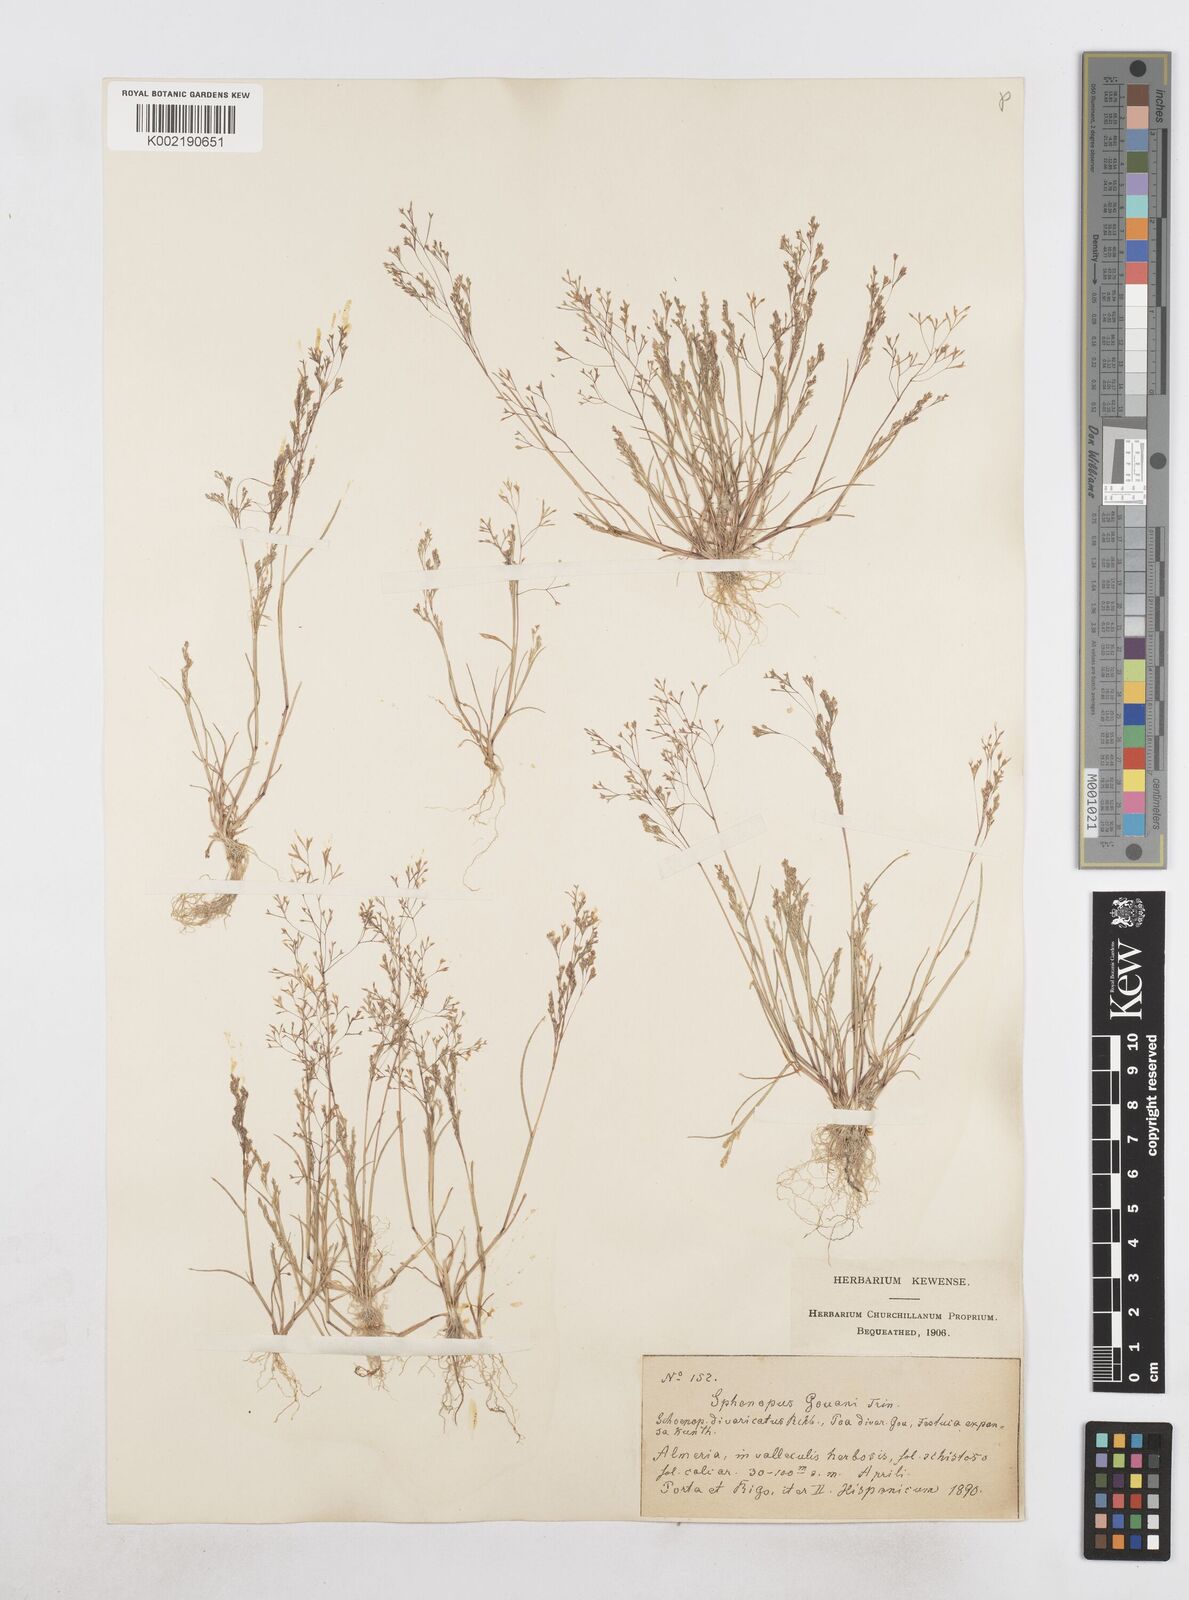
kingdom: Plantae
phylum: Tracheophyta
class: Liliopsida
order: Poales
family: Poaceae
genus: Sphenopus
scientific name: Sphenopus divaricatus
